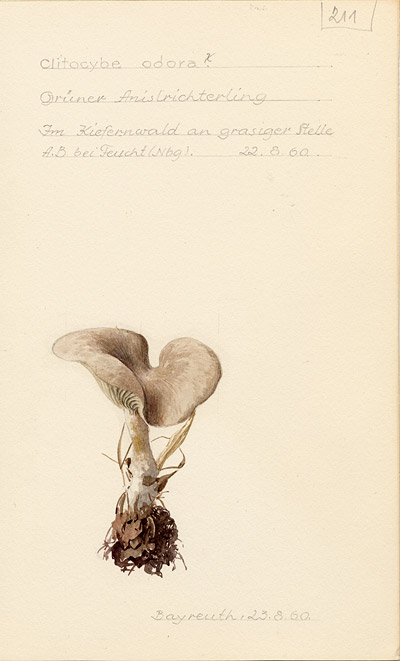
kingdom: Fungi
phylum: Basidiomycota
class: Agaricomycetes
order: Agaricales
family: Tricholomataceae
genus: Clitocybe
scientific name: Clitocybe odora
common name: Aniseed funnel
